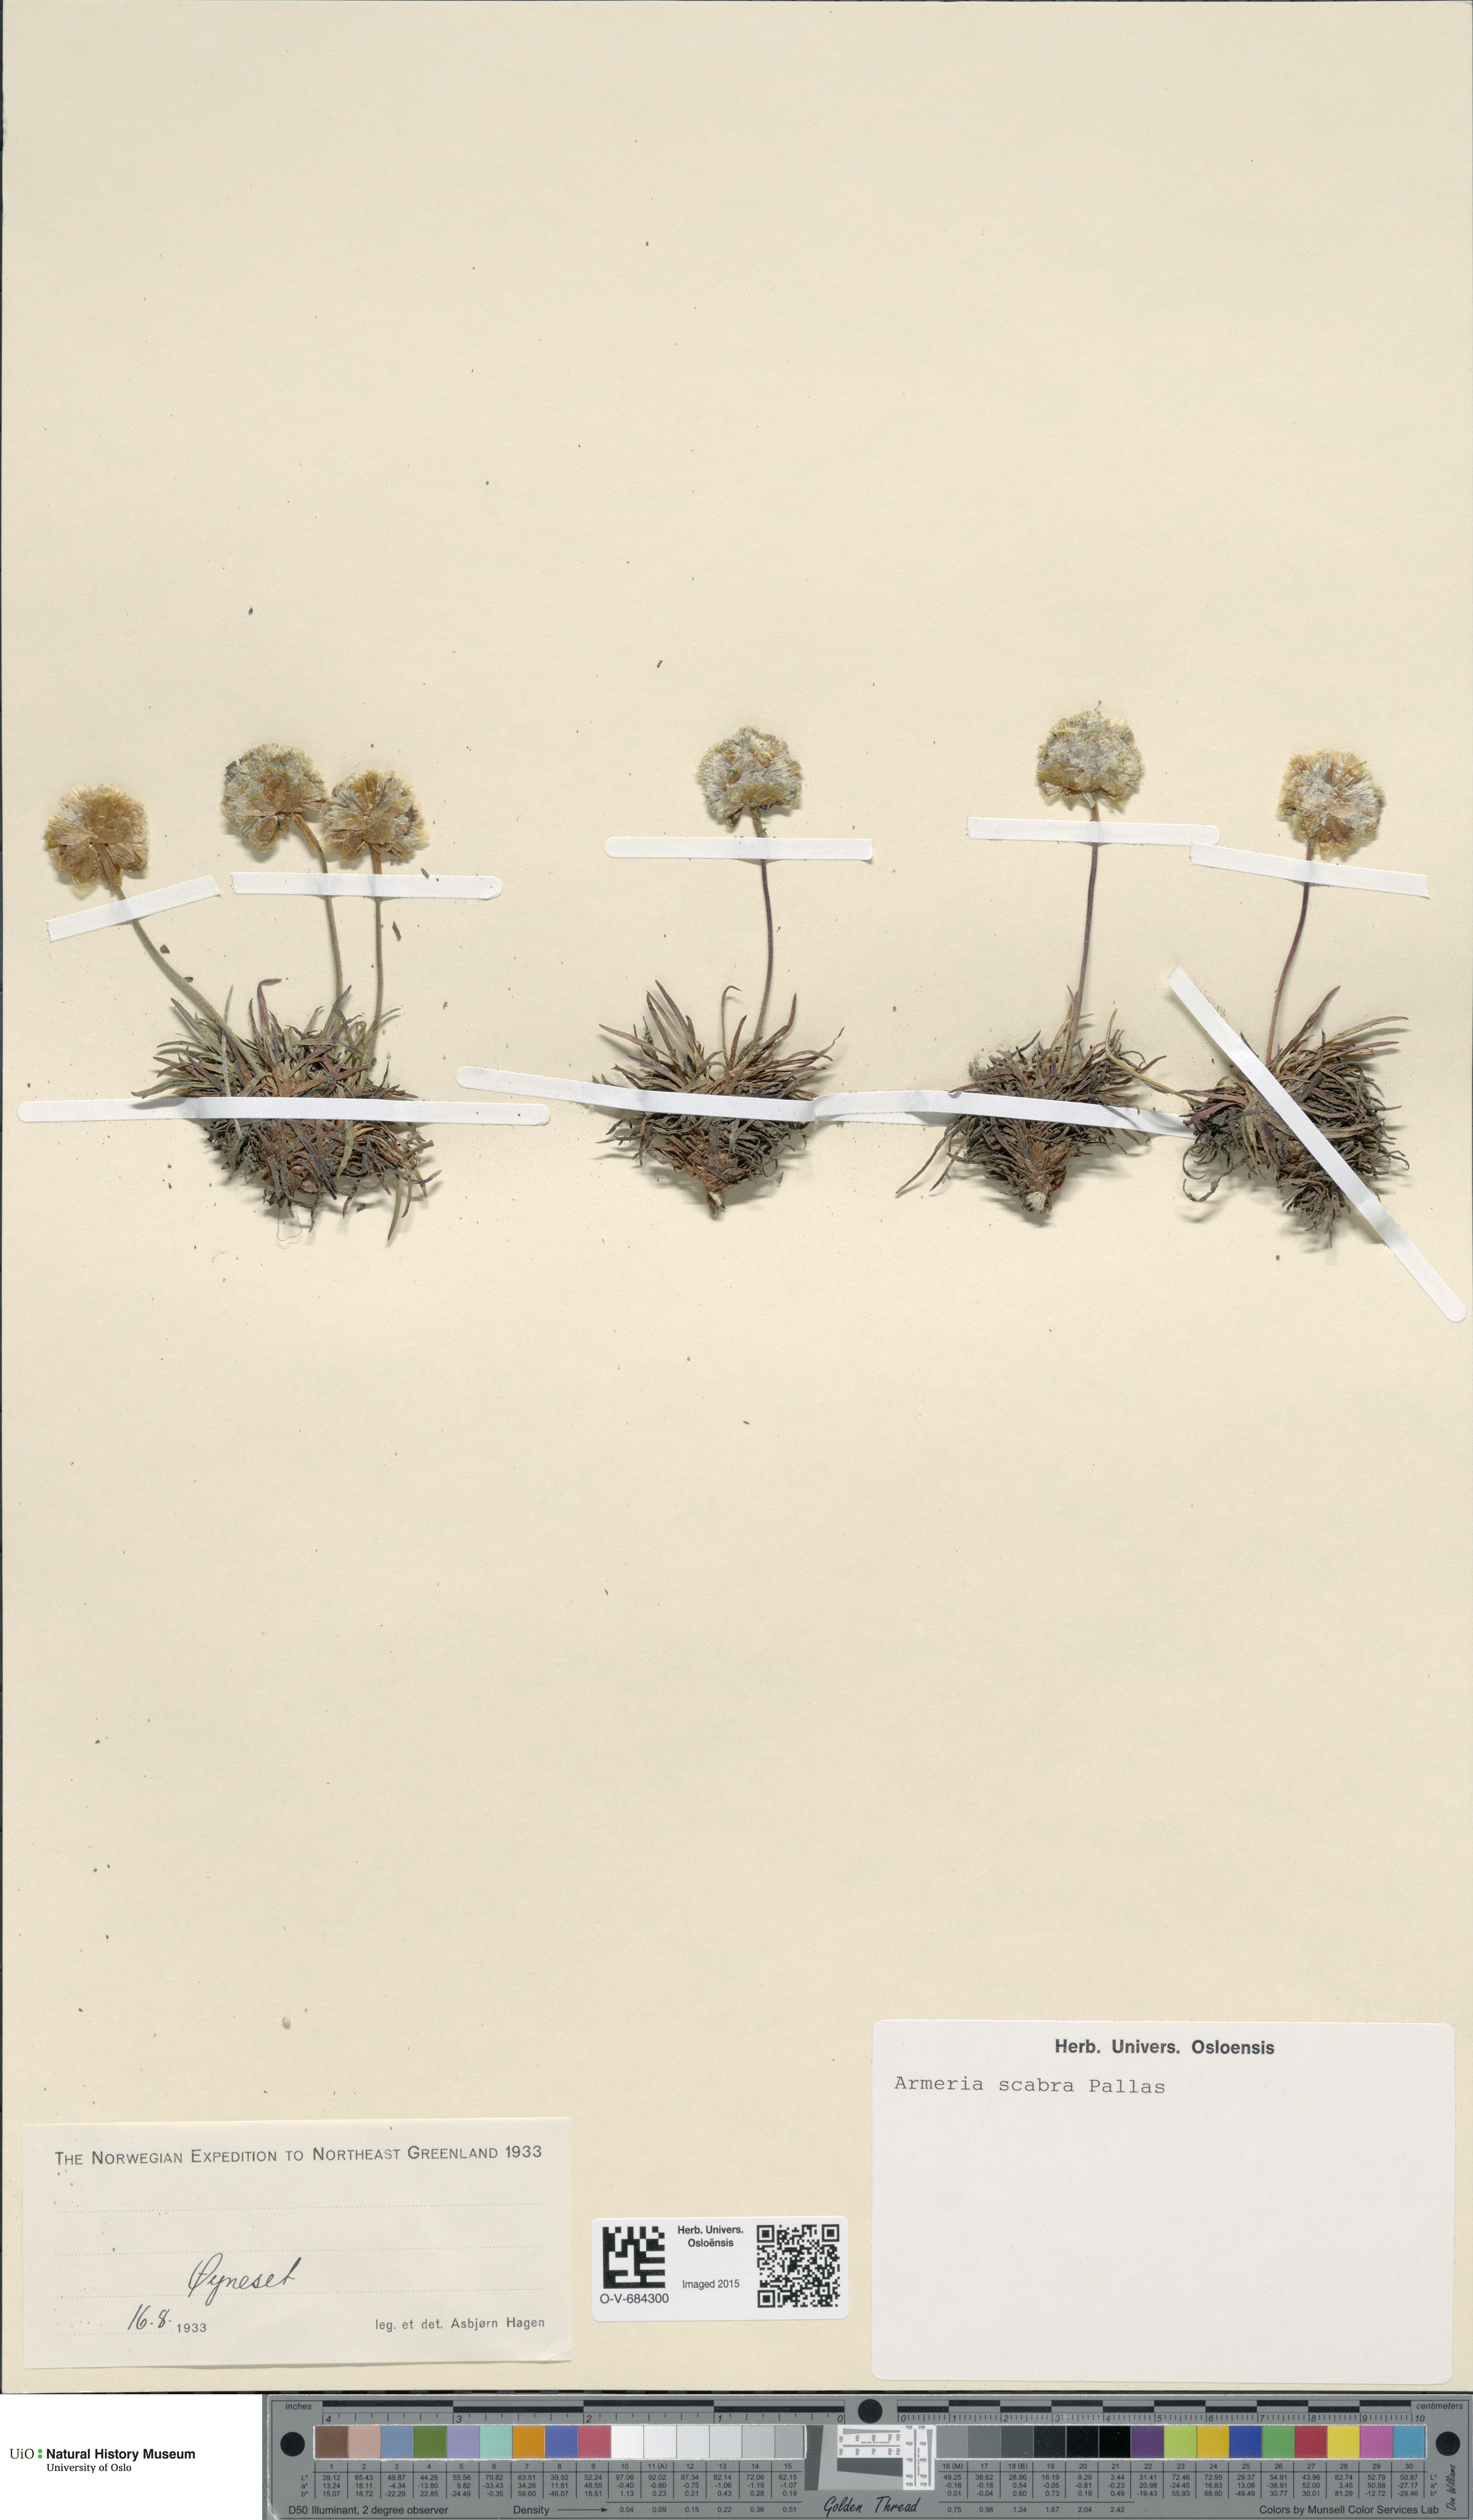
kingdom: Plantae
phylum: Tracheophyta
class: Magnoliopsida
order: Caryophyllales
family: Plumbaginaceae
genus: Armeria
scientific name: Armeria maritima
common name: Thrift
